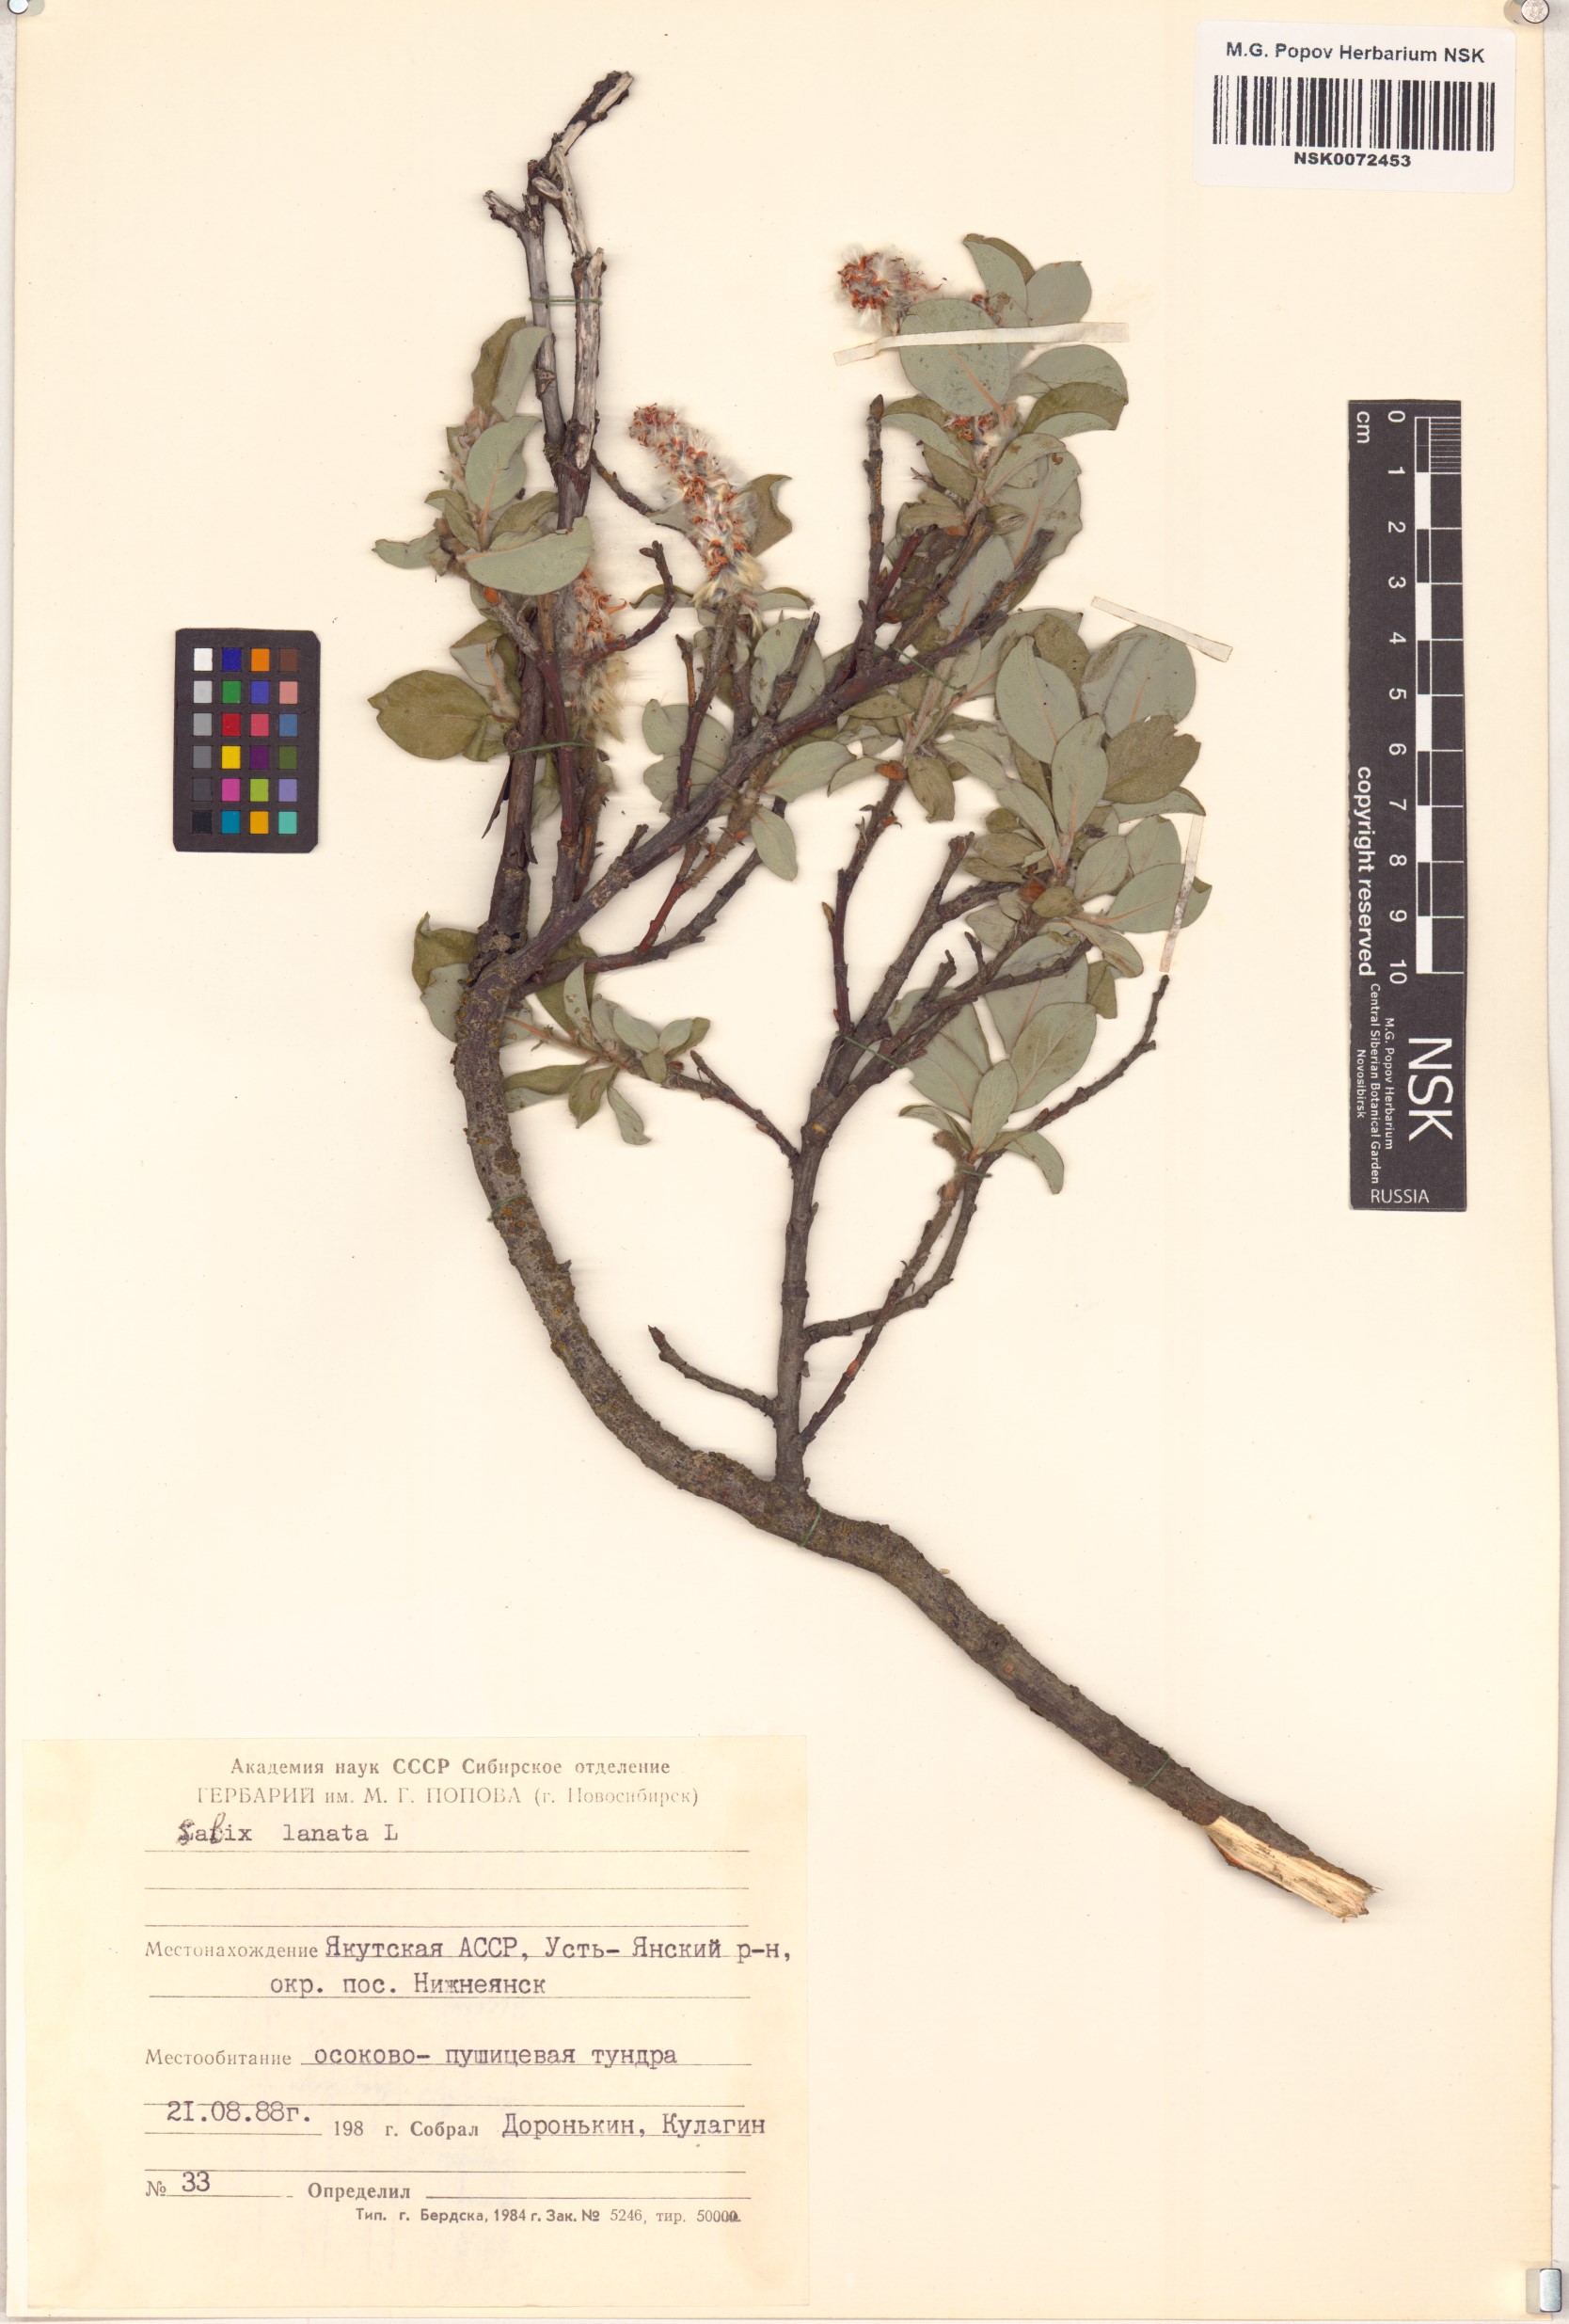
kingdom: Plantae
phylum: Tracheophyta
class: Magnoliopsida
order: Malpighiales
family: Salicaceae
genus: Salix
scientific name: Salix lanata
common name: Woolly willow
